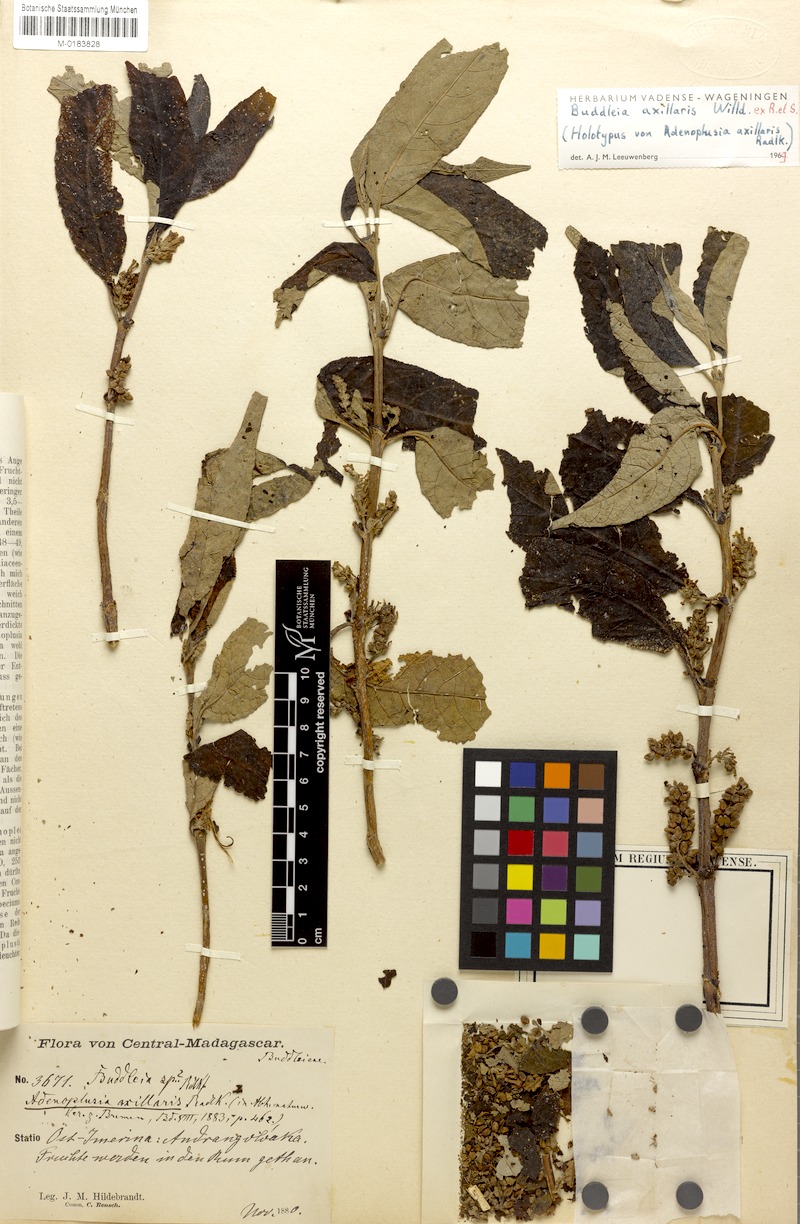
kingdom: Plantae
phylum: Tracheophyta
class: Magnoliopsida
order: Lamiales
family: Scrophulariaceae
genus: Buddleja
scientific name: Buddleja axillaris
